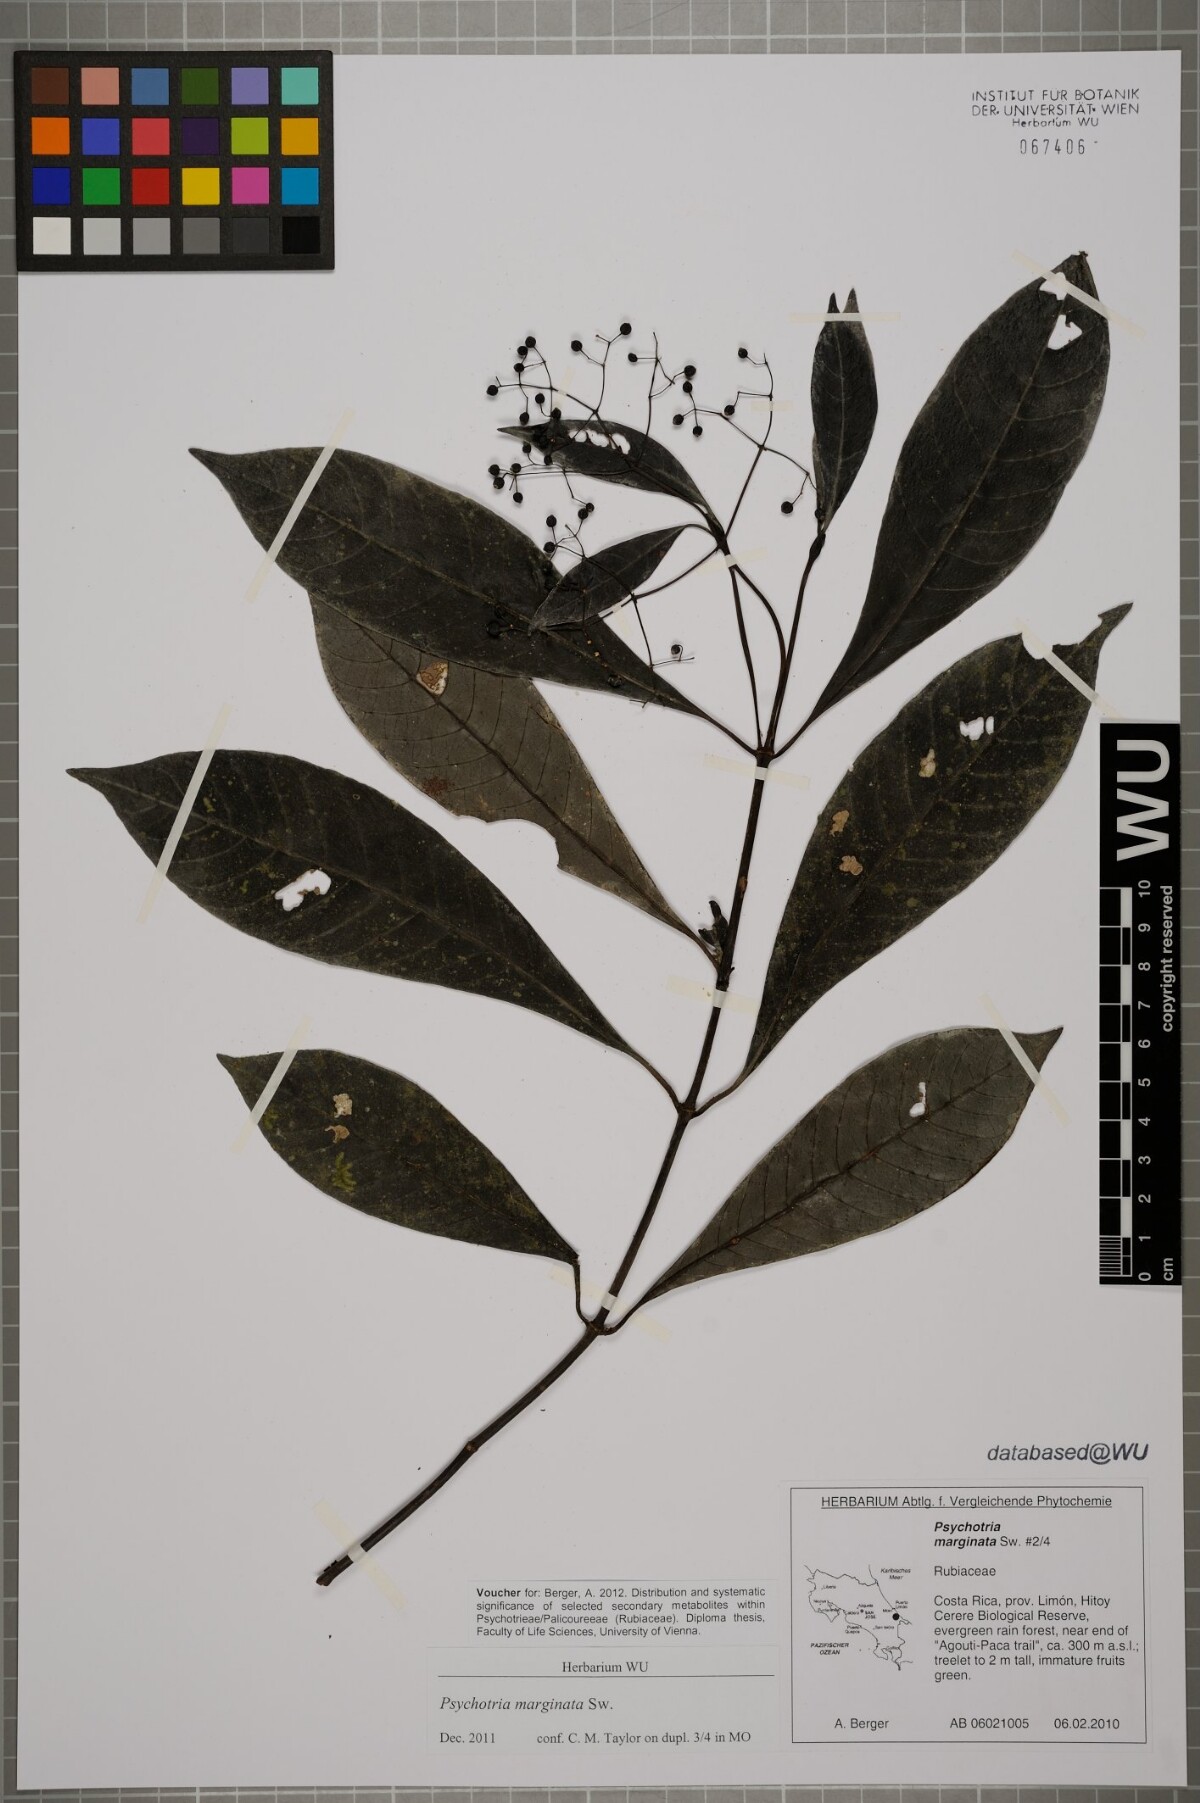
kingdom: Plantae
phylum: Tracheophyta
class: Magnoliopsida
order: Gentianales
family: Rubiaceae
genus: Psychotria
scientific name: Psychotria marginata
